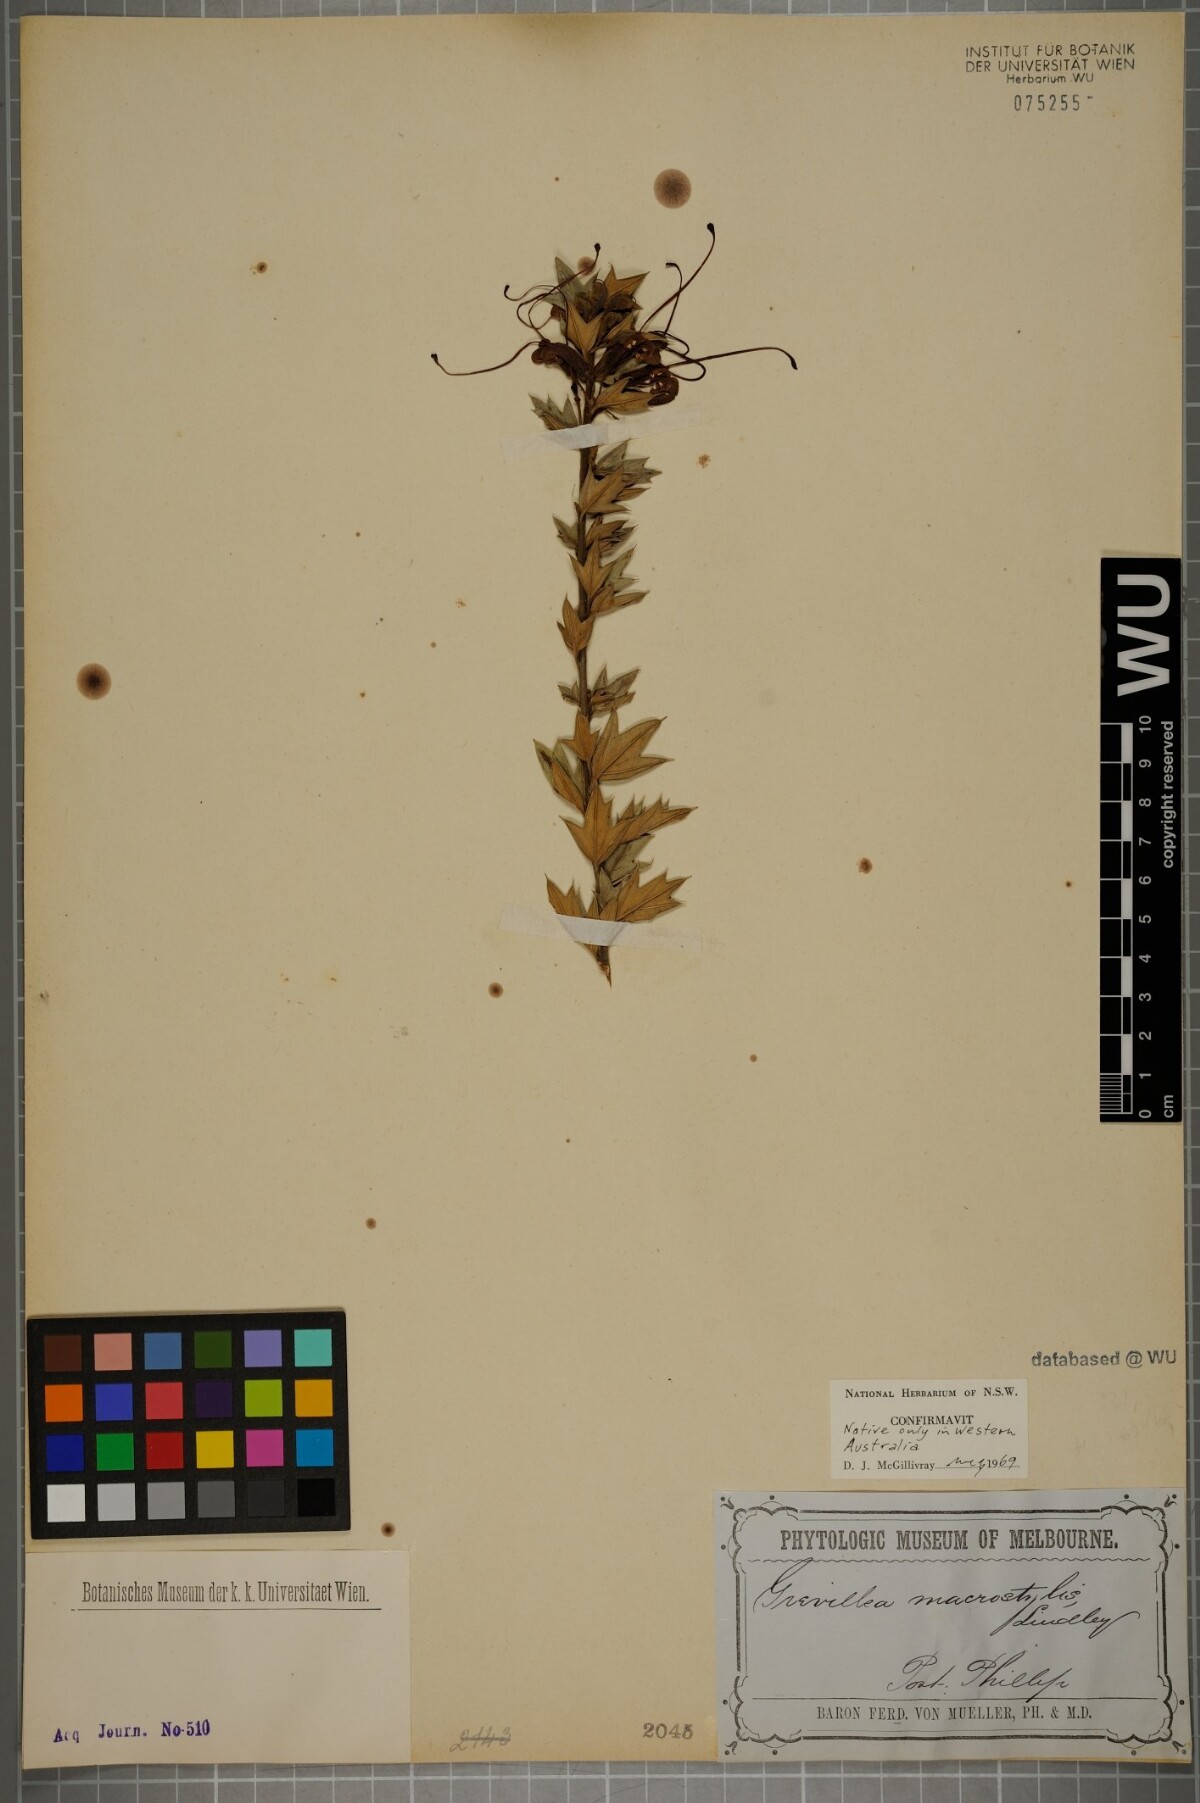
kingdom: Plantae
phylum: Tracheophyta
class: Magnoliopsida
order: Proteales
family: Proteaceae
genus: Grevillea
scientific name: Grevillea tripartita
